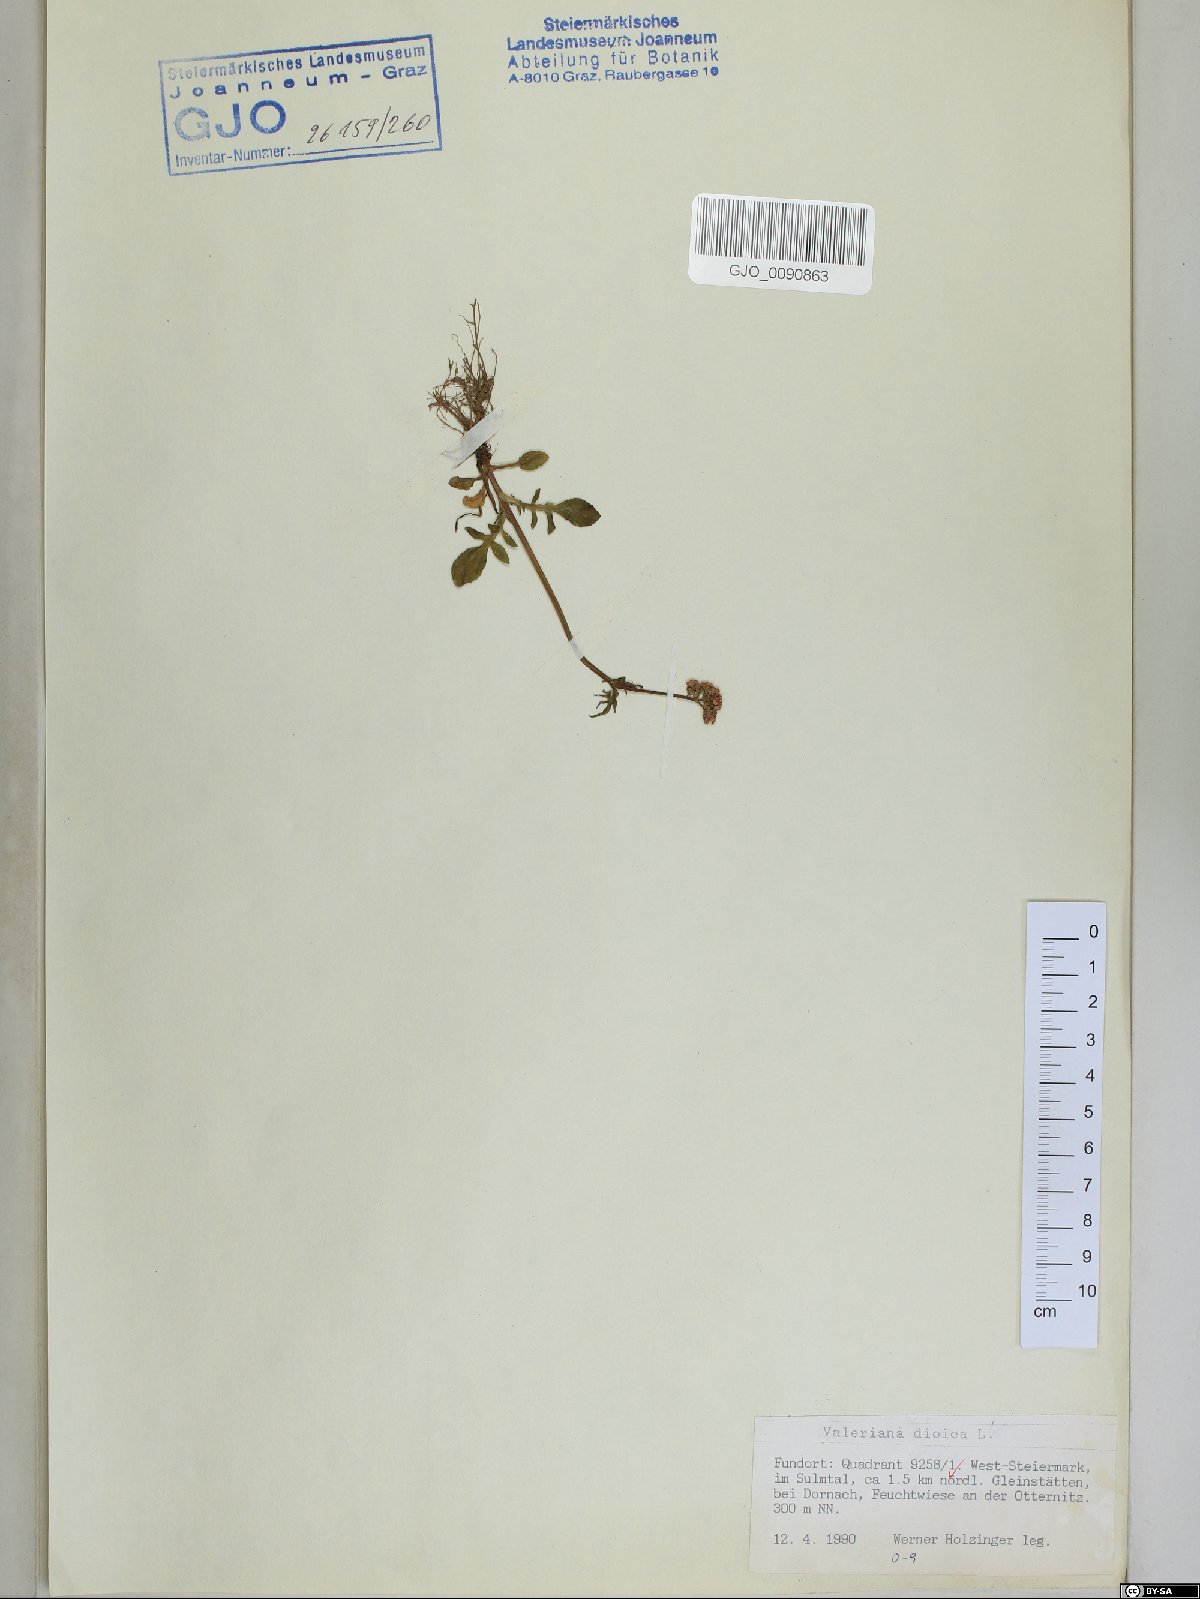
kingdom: Plantae
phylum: Tracheophyta
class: Magnoliopsida
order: Dipsacales
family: Caprifoliaceae
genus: Valeriana
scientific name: Valeriana dioica
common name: Marsh valerian
